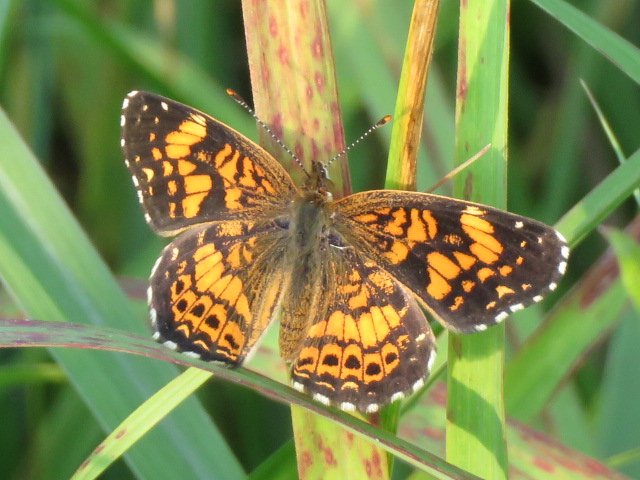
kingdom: Animalia
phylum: Arthropoda
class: Insecta
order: Lepidoptera
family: Nymphalidae
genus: Chlosyne
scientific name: Chlosyne gorgone
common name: Gorgone Checkerspot
